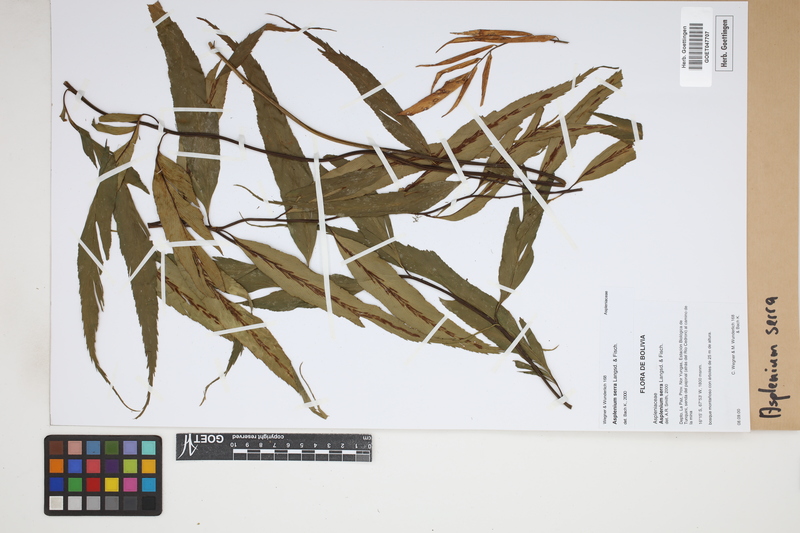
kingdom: Plantae
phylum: Tracheophyta
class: Polypodiopsida
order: Polypodiales
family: Aspleniaceae
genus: Asplenium
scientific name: Asplenium serra
